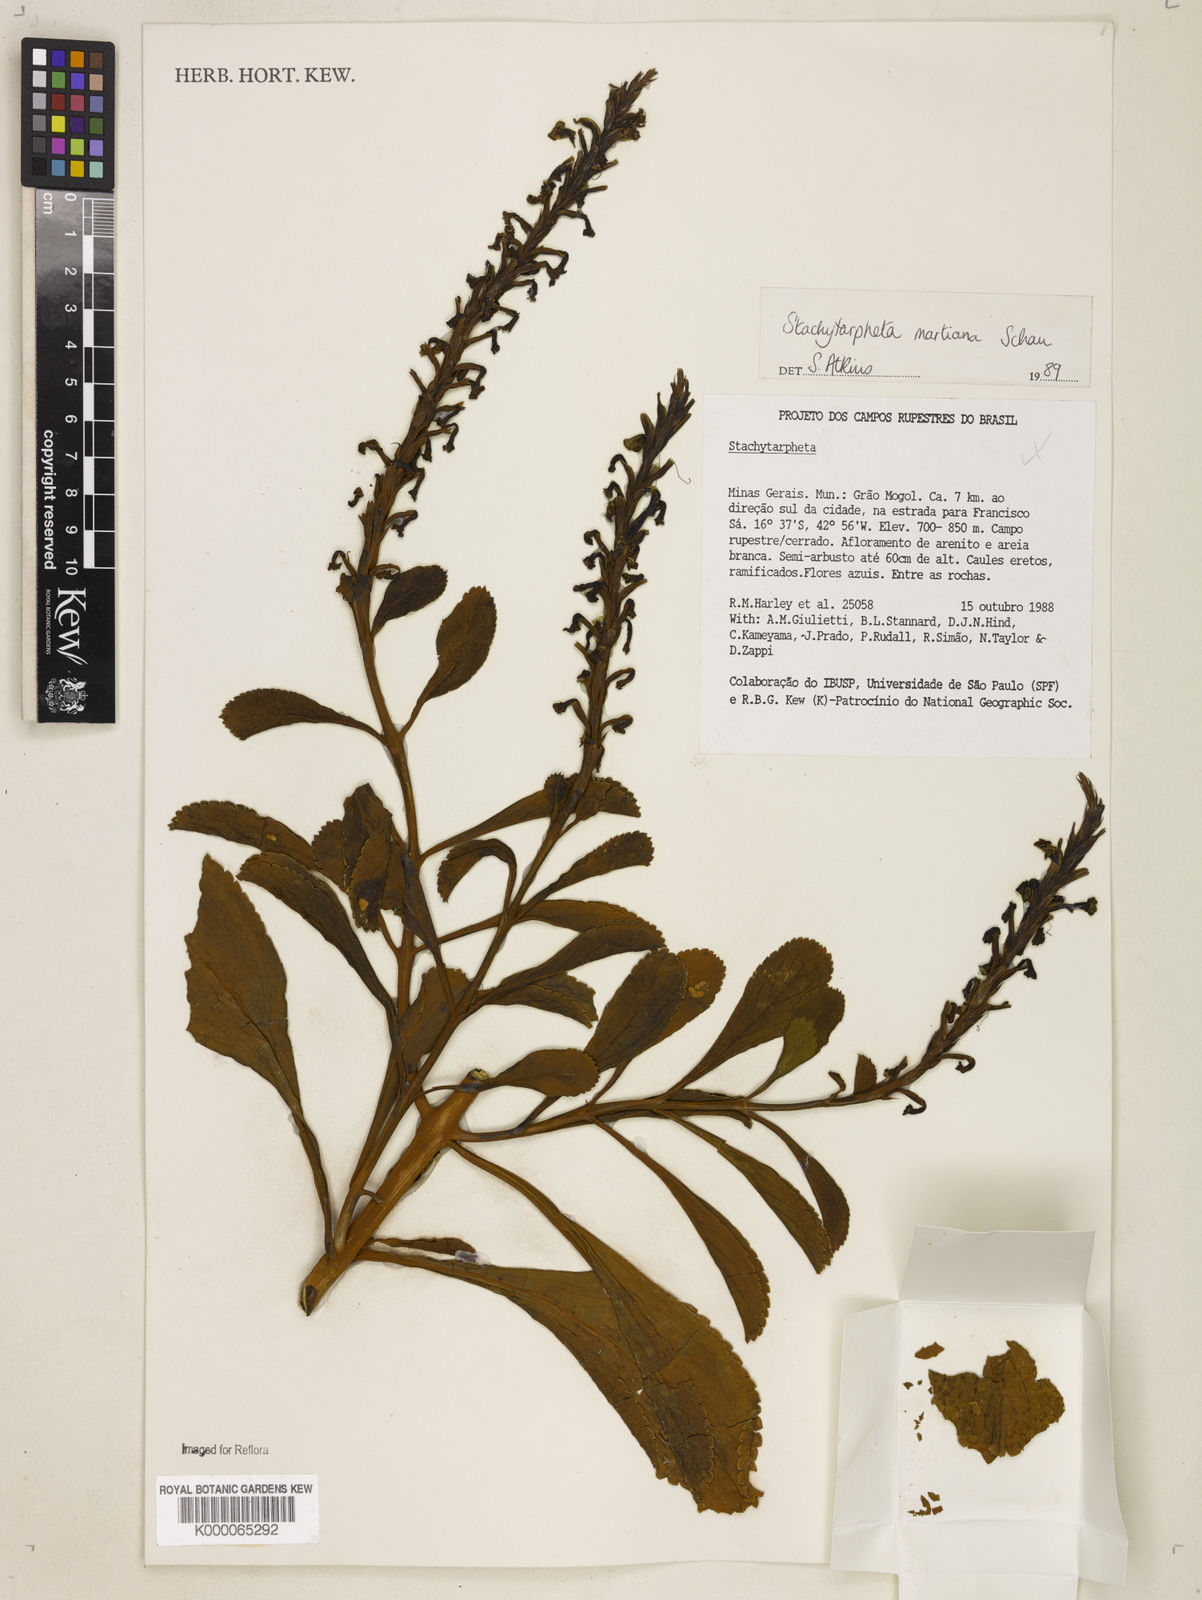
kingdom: Plantae
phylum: Tracheophyta
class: Magnoliopsida
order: Lamiales
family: Verbenaceae
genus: Stachytarpheta
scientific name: Stachytarpheta martiana
